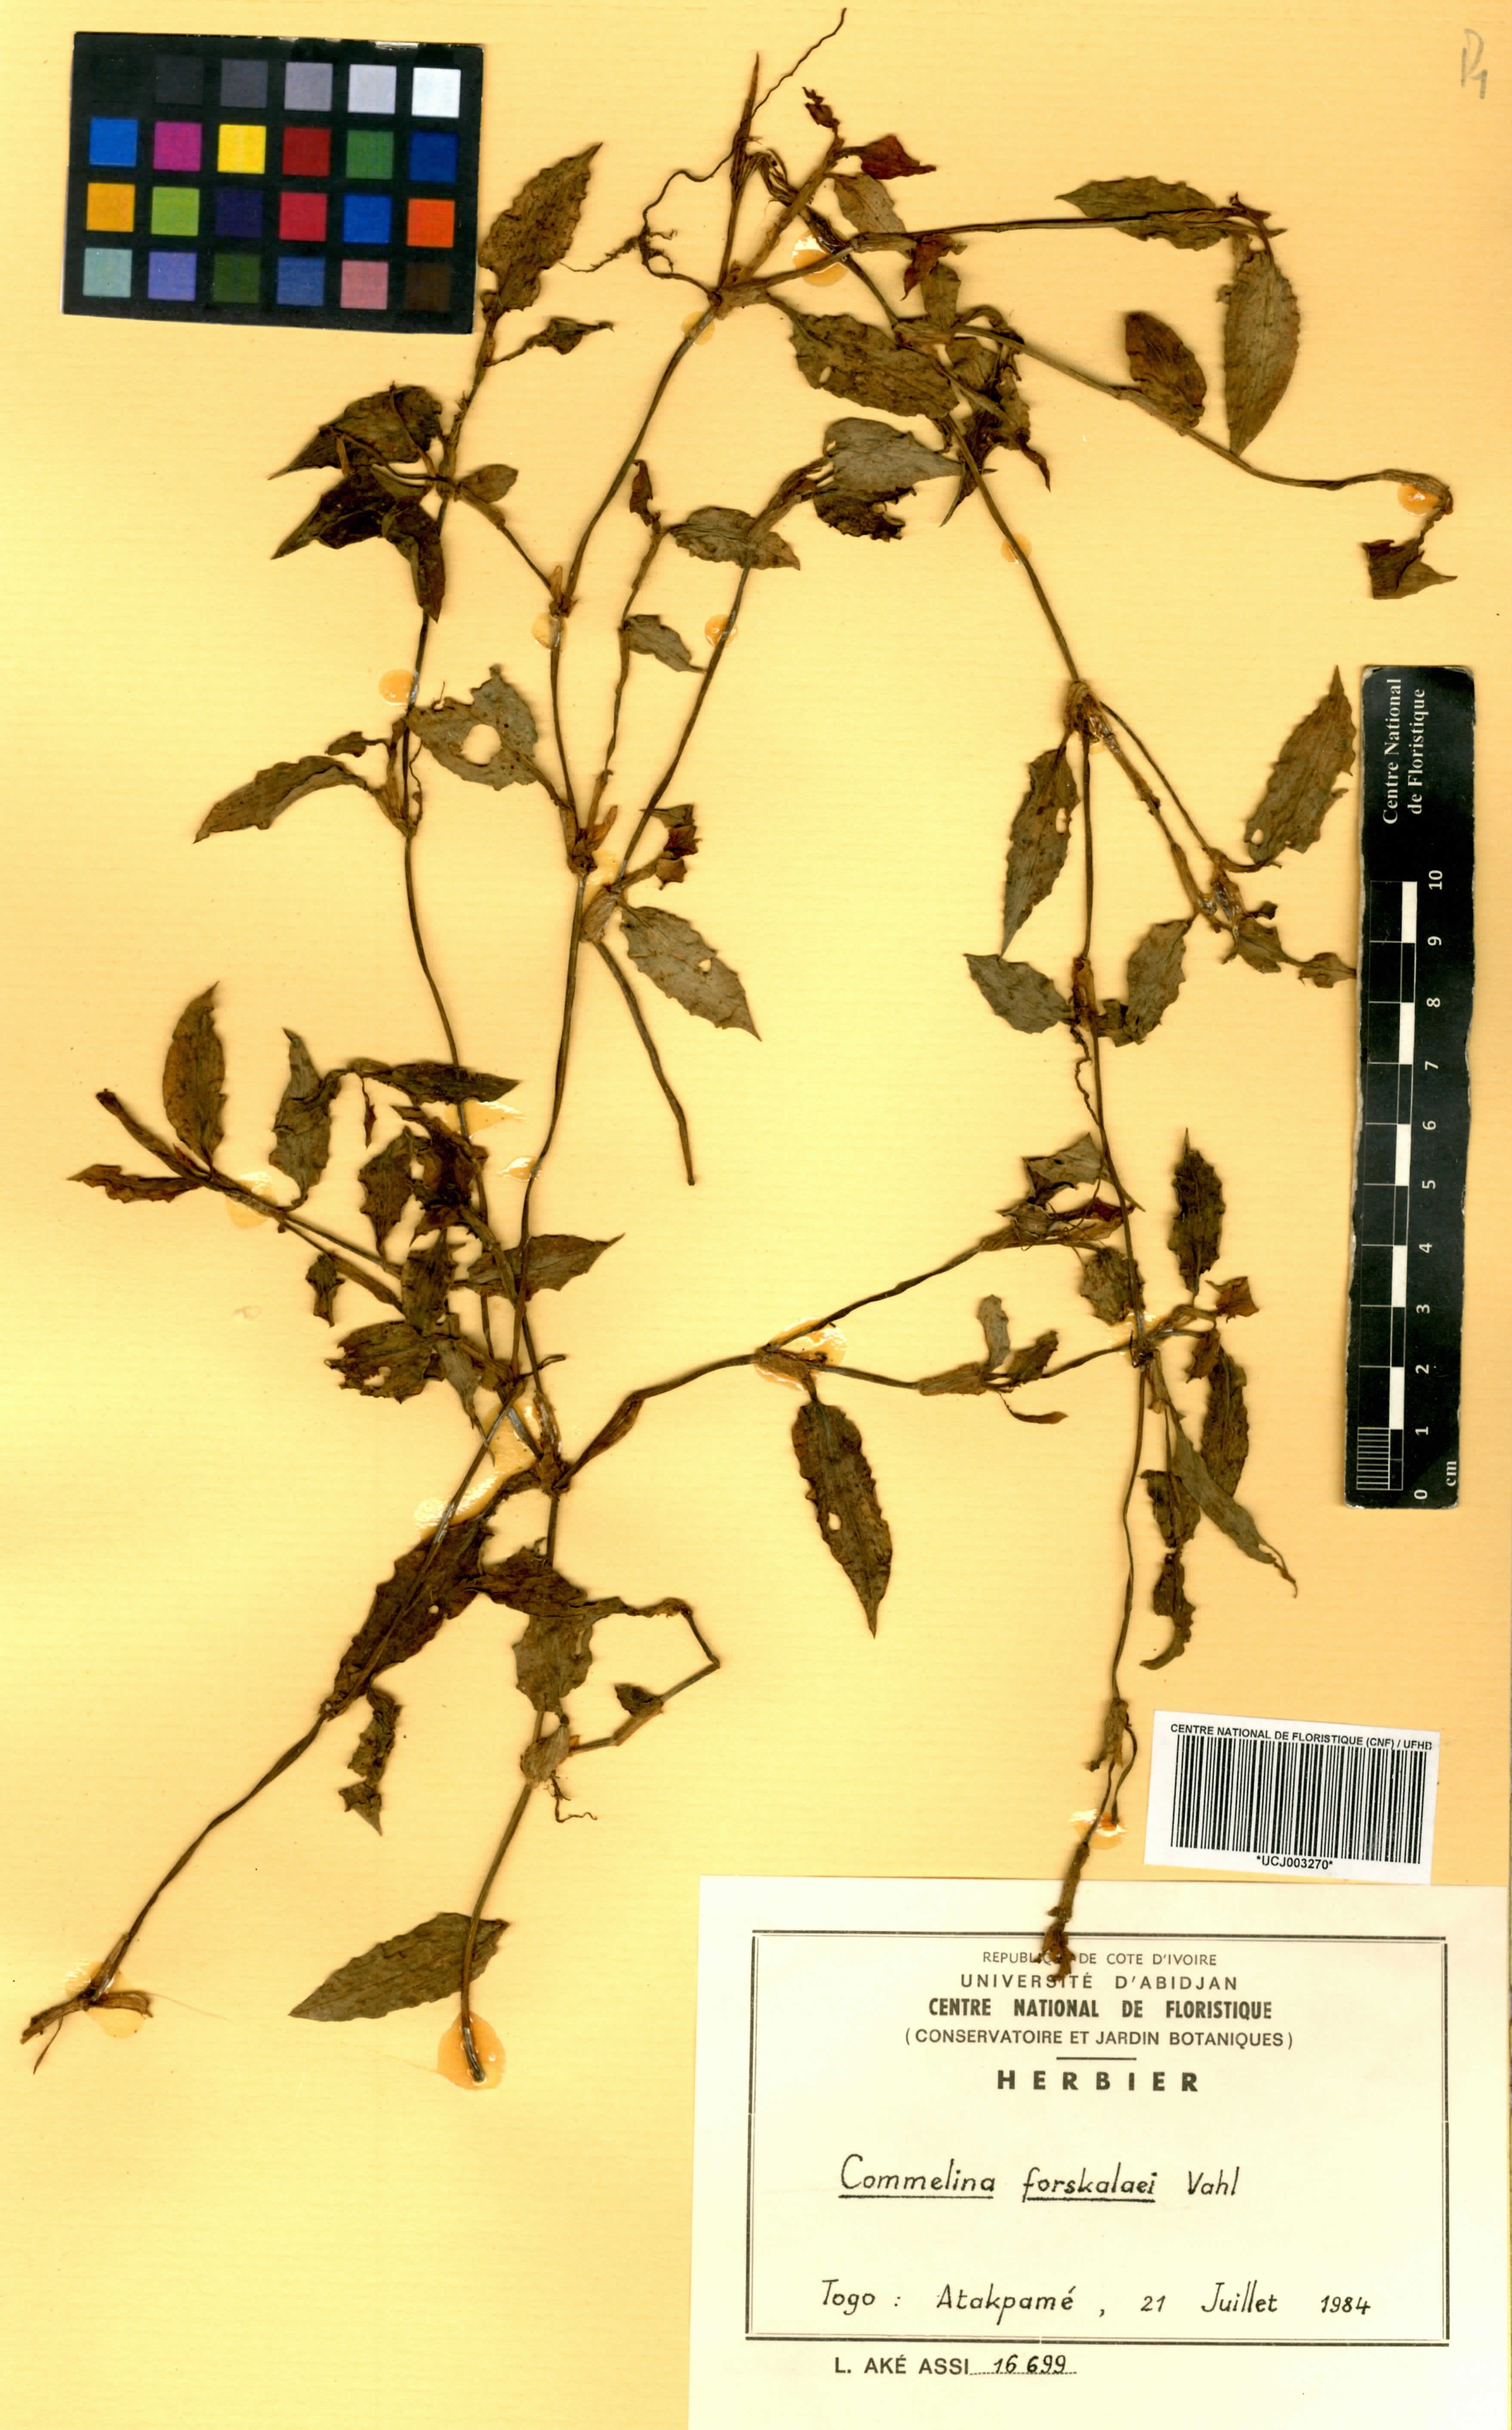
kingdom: Plantae
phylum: Tracheophyta
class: Liliopsida
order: Commelinales
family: Commelinaceae
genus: Commelina
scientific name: Commelina forskalaei
